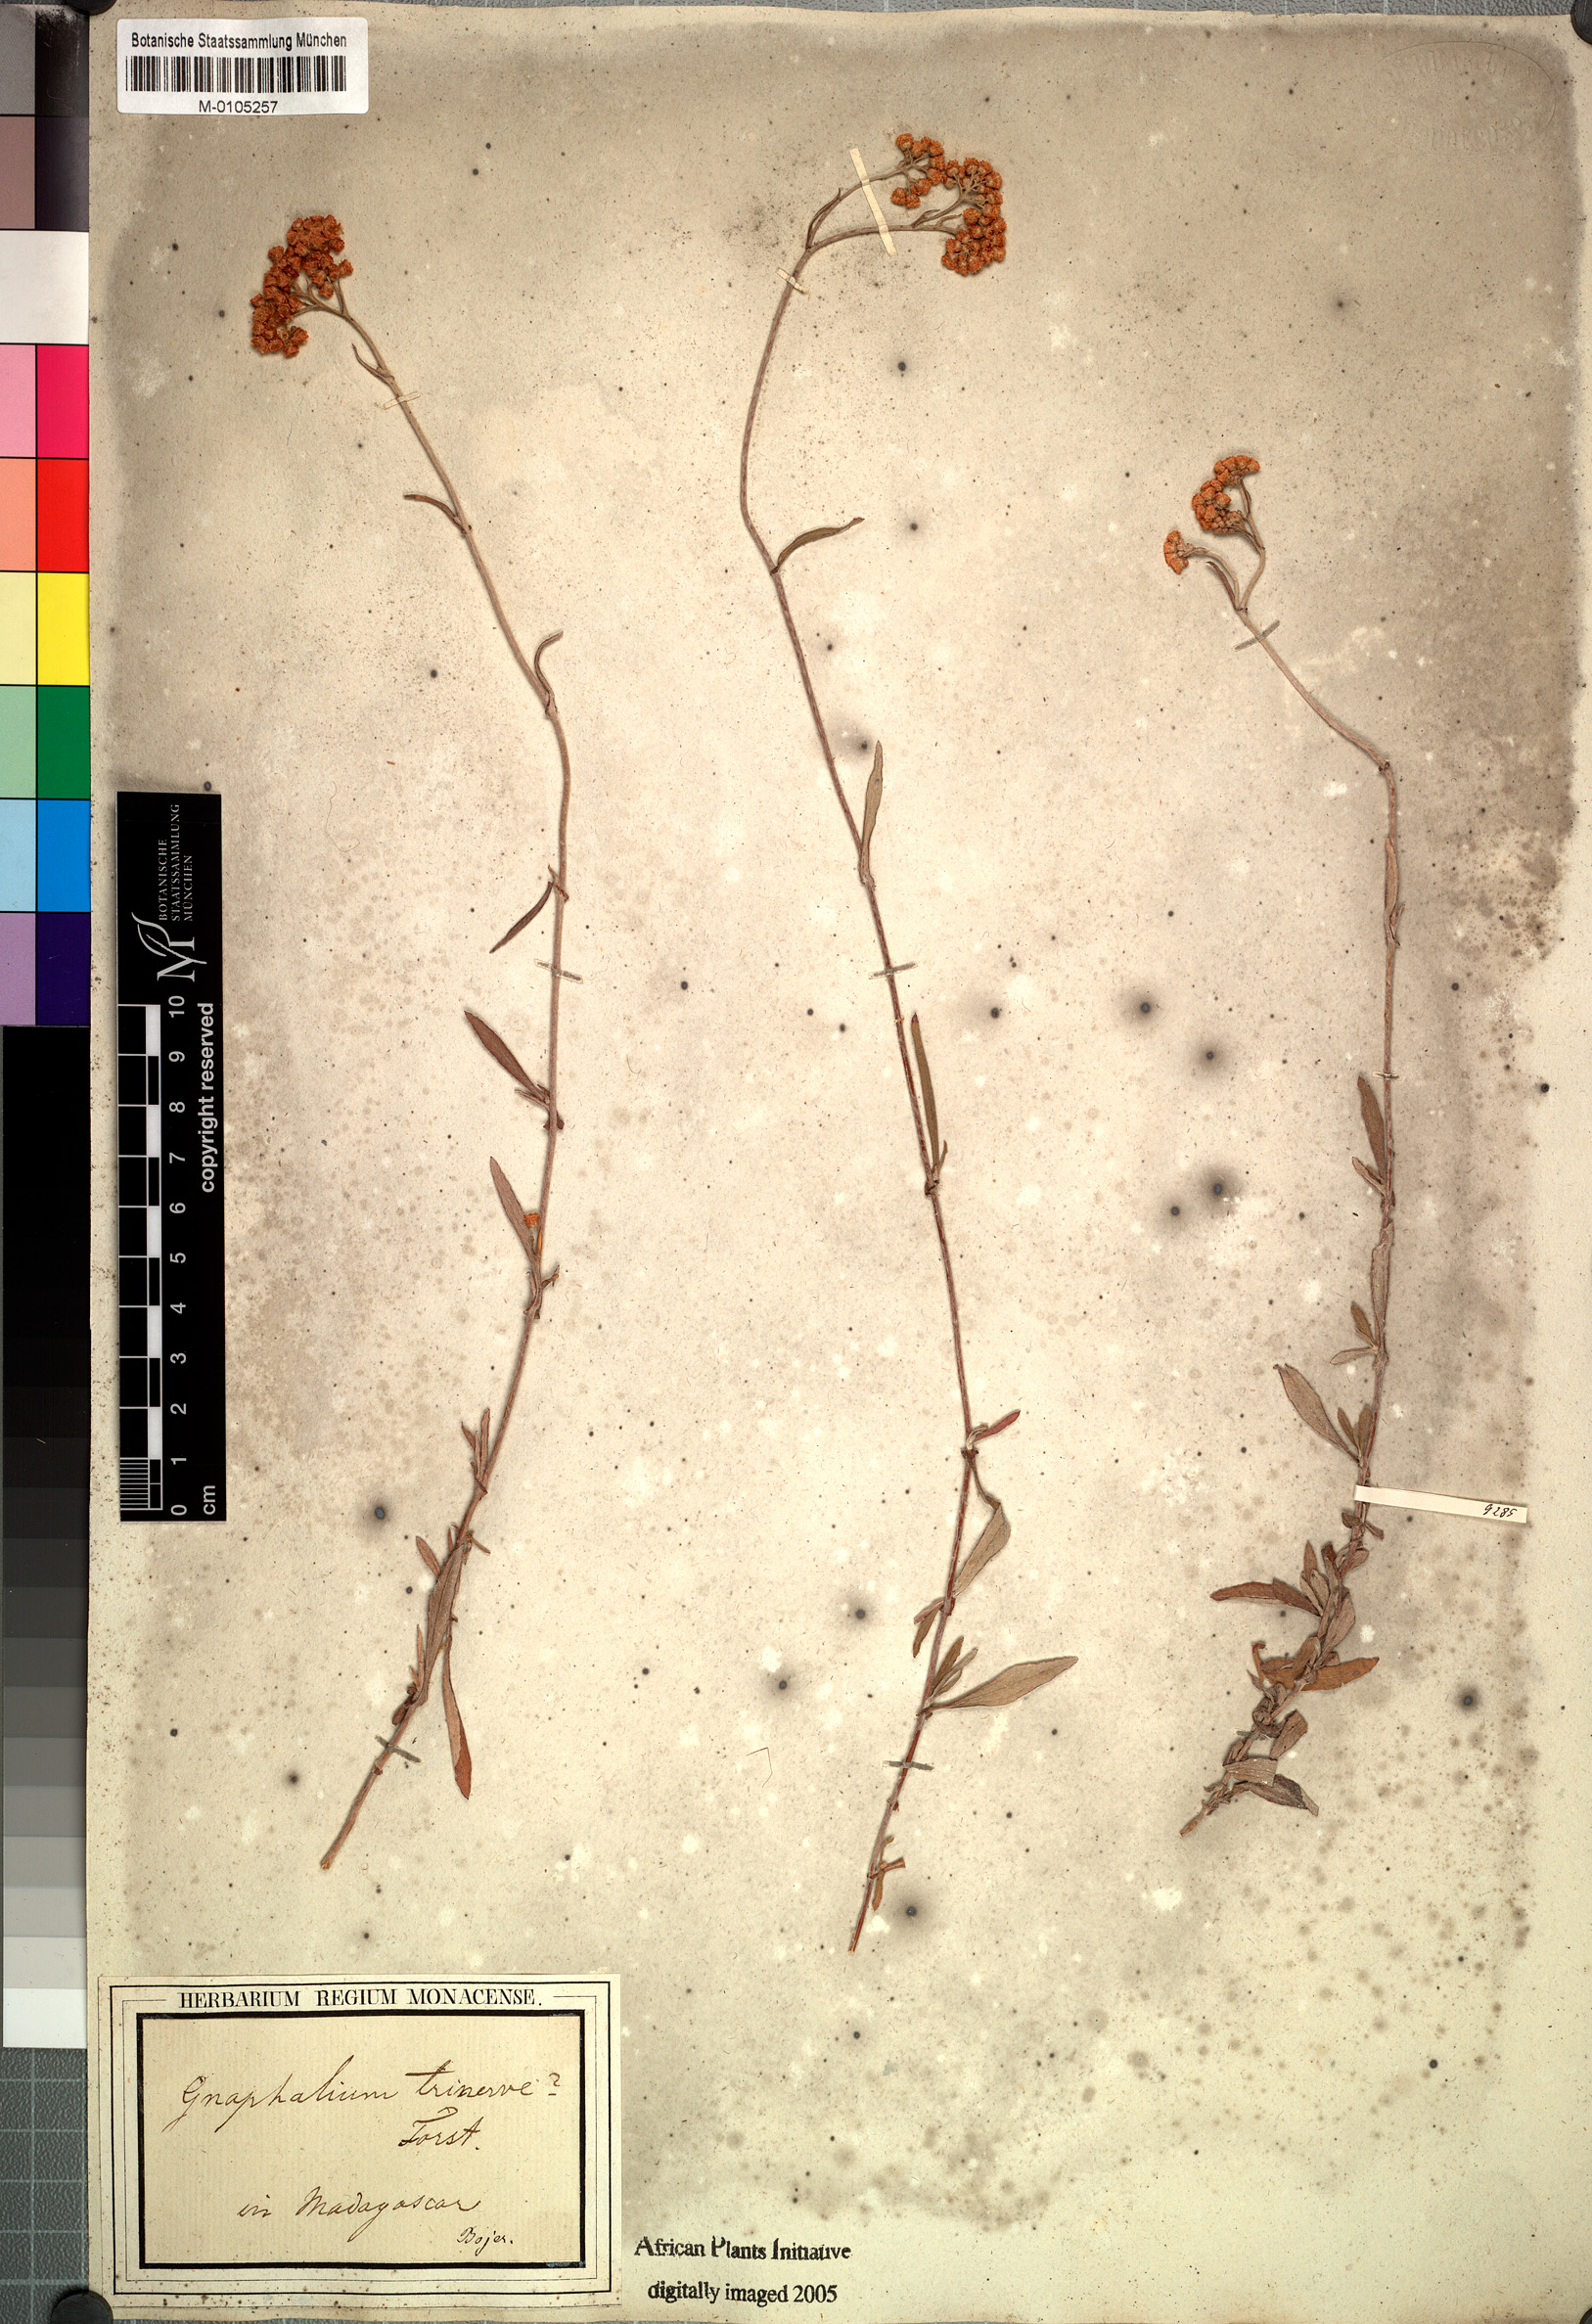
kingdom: Plantae
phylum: Tracheophyta
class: Magnoliopsida
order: Asterales
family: Asteraceae
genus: Helichrysum
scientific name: Helichrysum triplinerve
